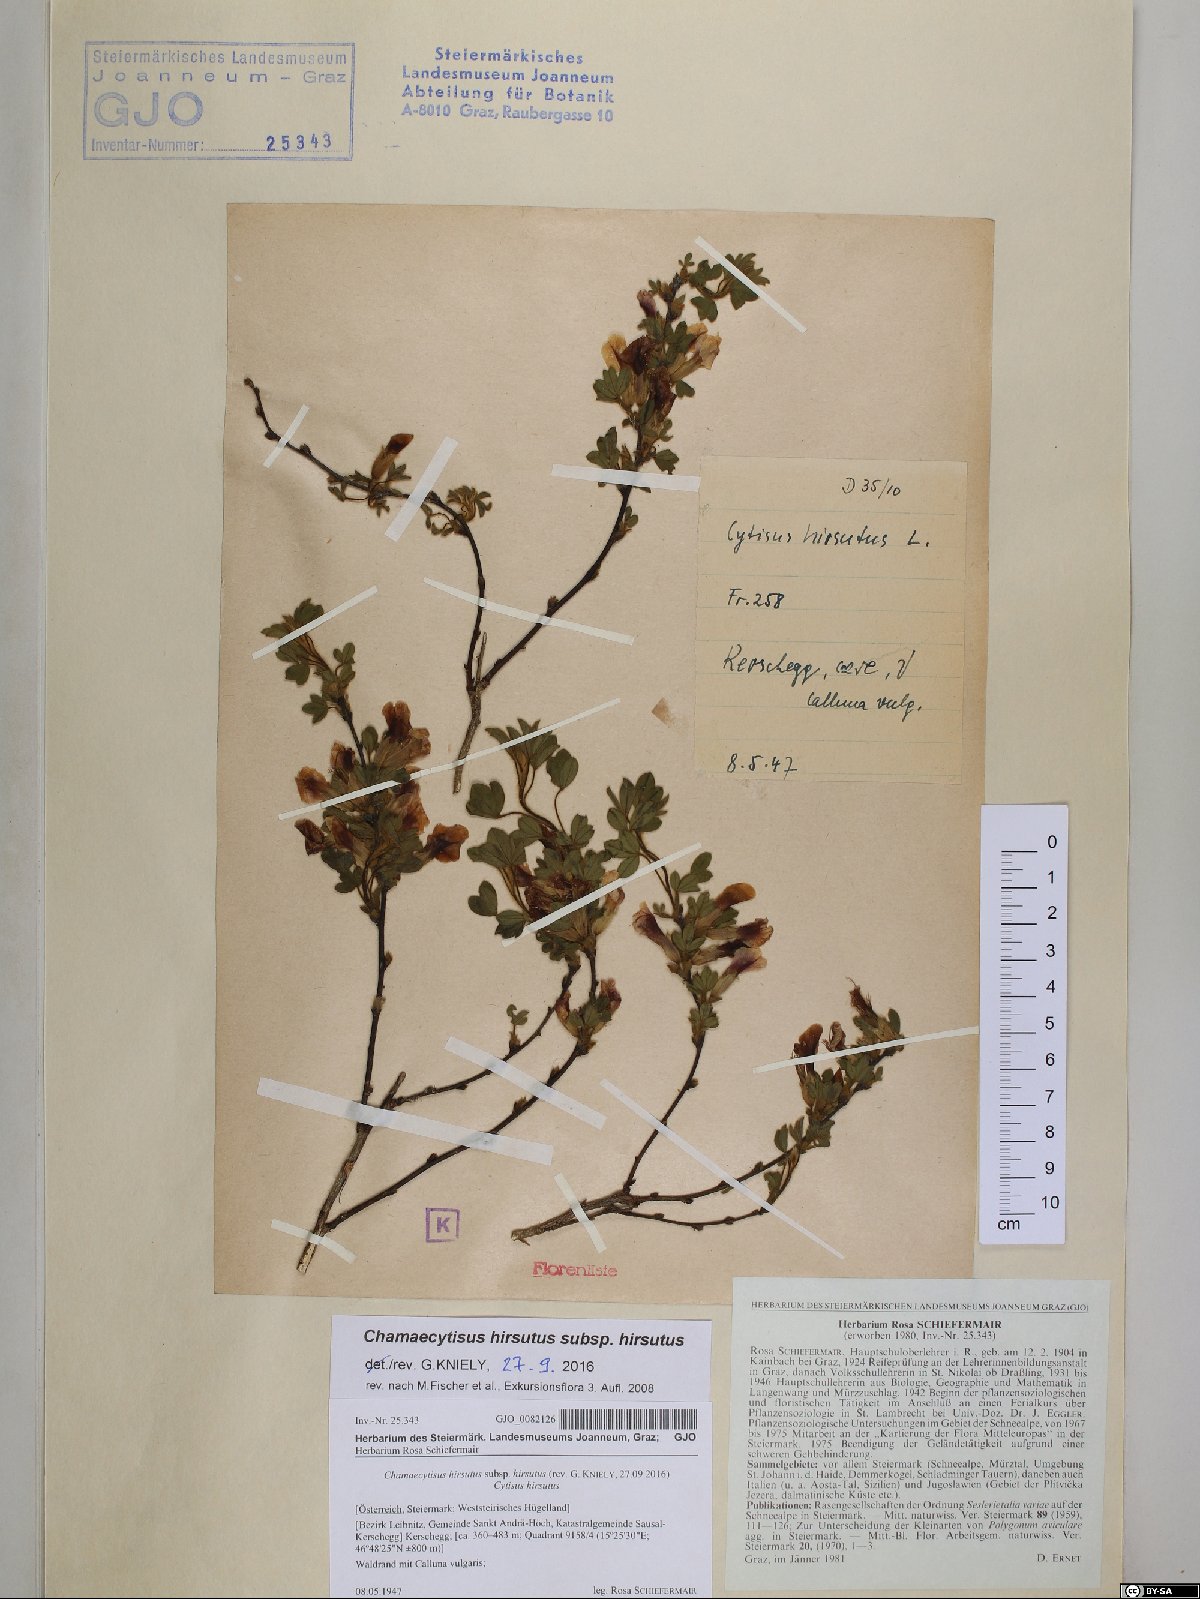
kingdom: Plantae
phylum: Tracheophyta
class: Magnoliopsida
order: Fabales
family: Fabaceae
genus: Chamaecytisus
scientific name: Chamaecytisus hirsutus
